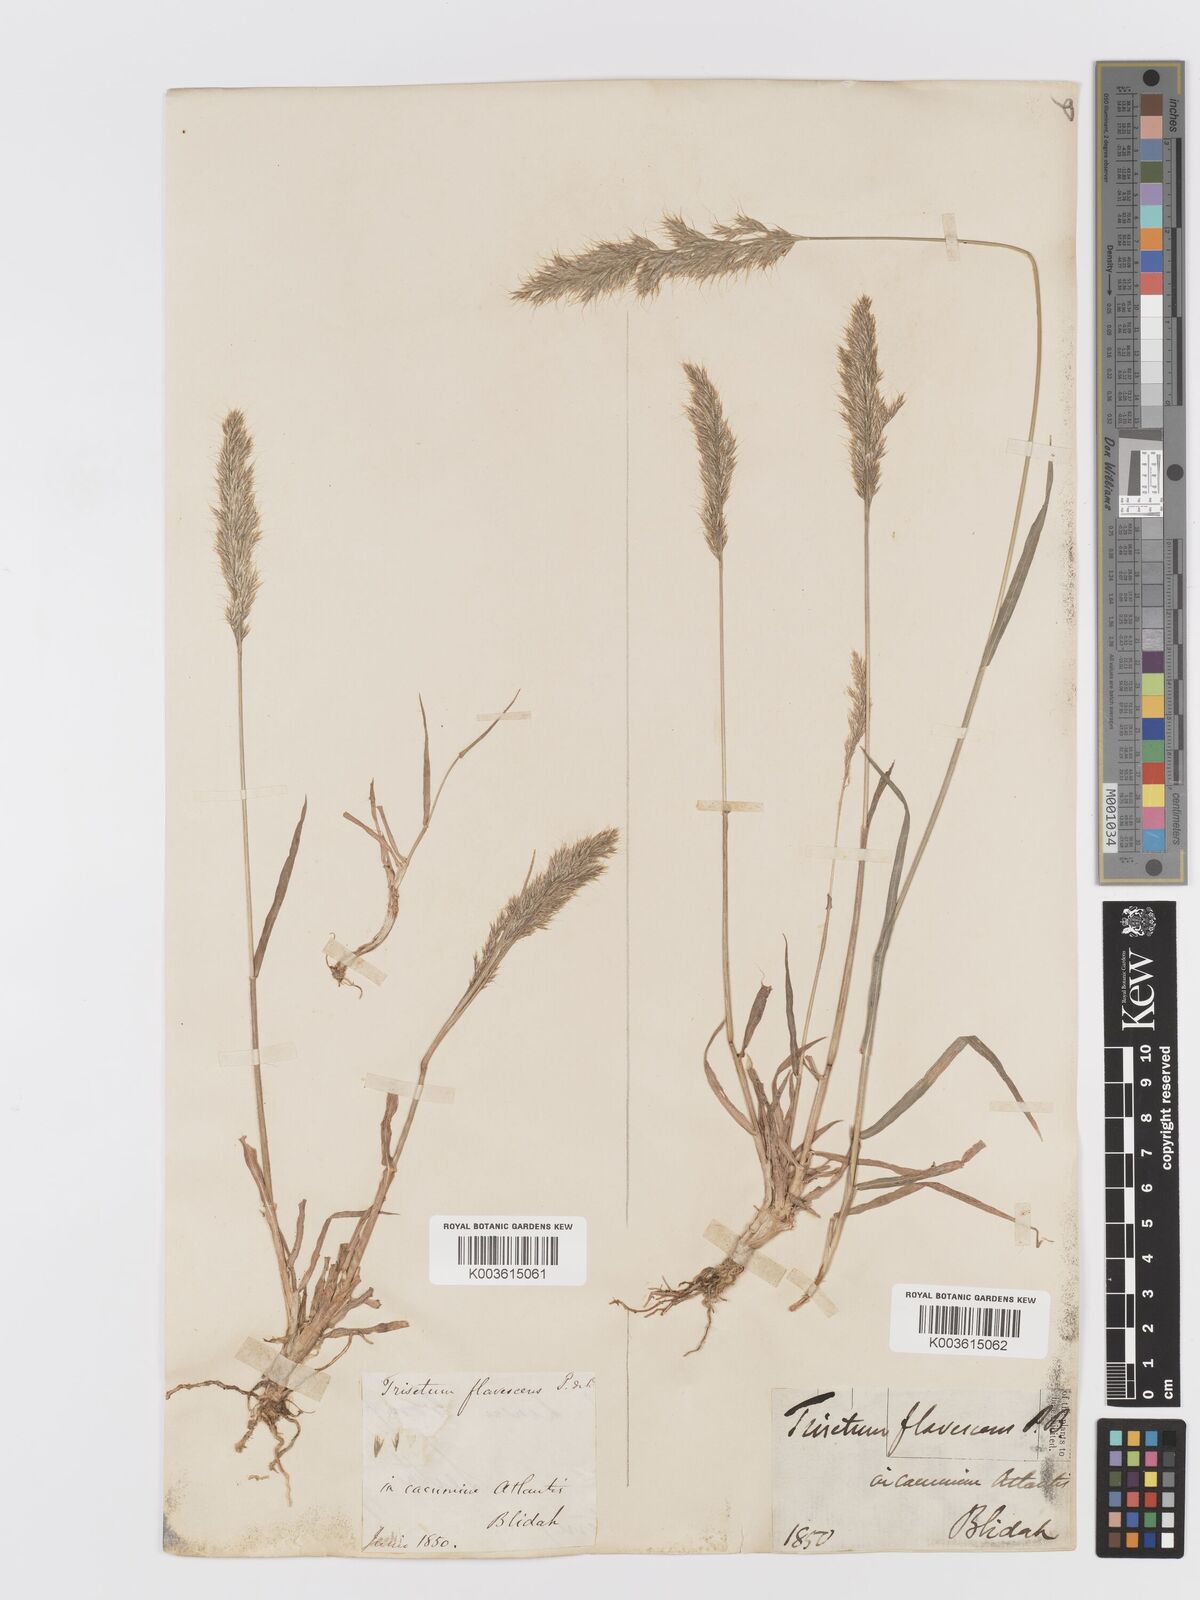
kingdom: Plantae
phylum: Tracheophyta
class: Liliopsida
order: Poales
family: Poaceae
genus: Trisetum
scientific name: Trisetum flavescens
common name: Yellow oat-grass
